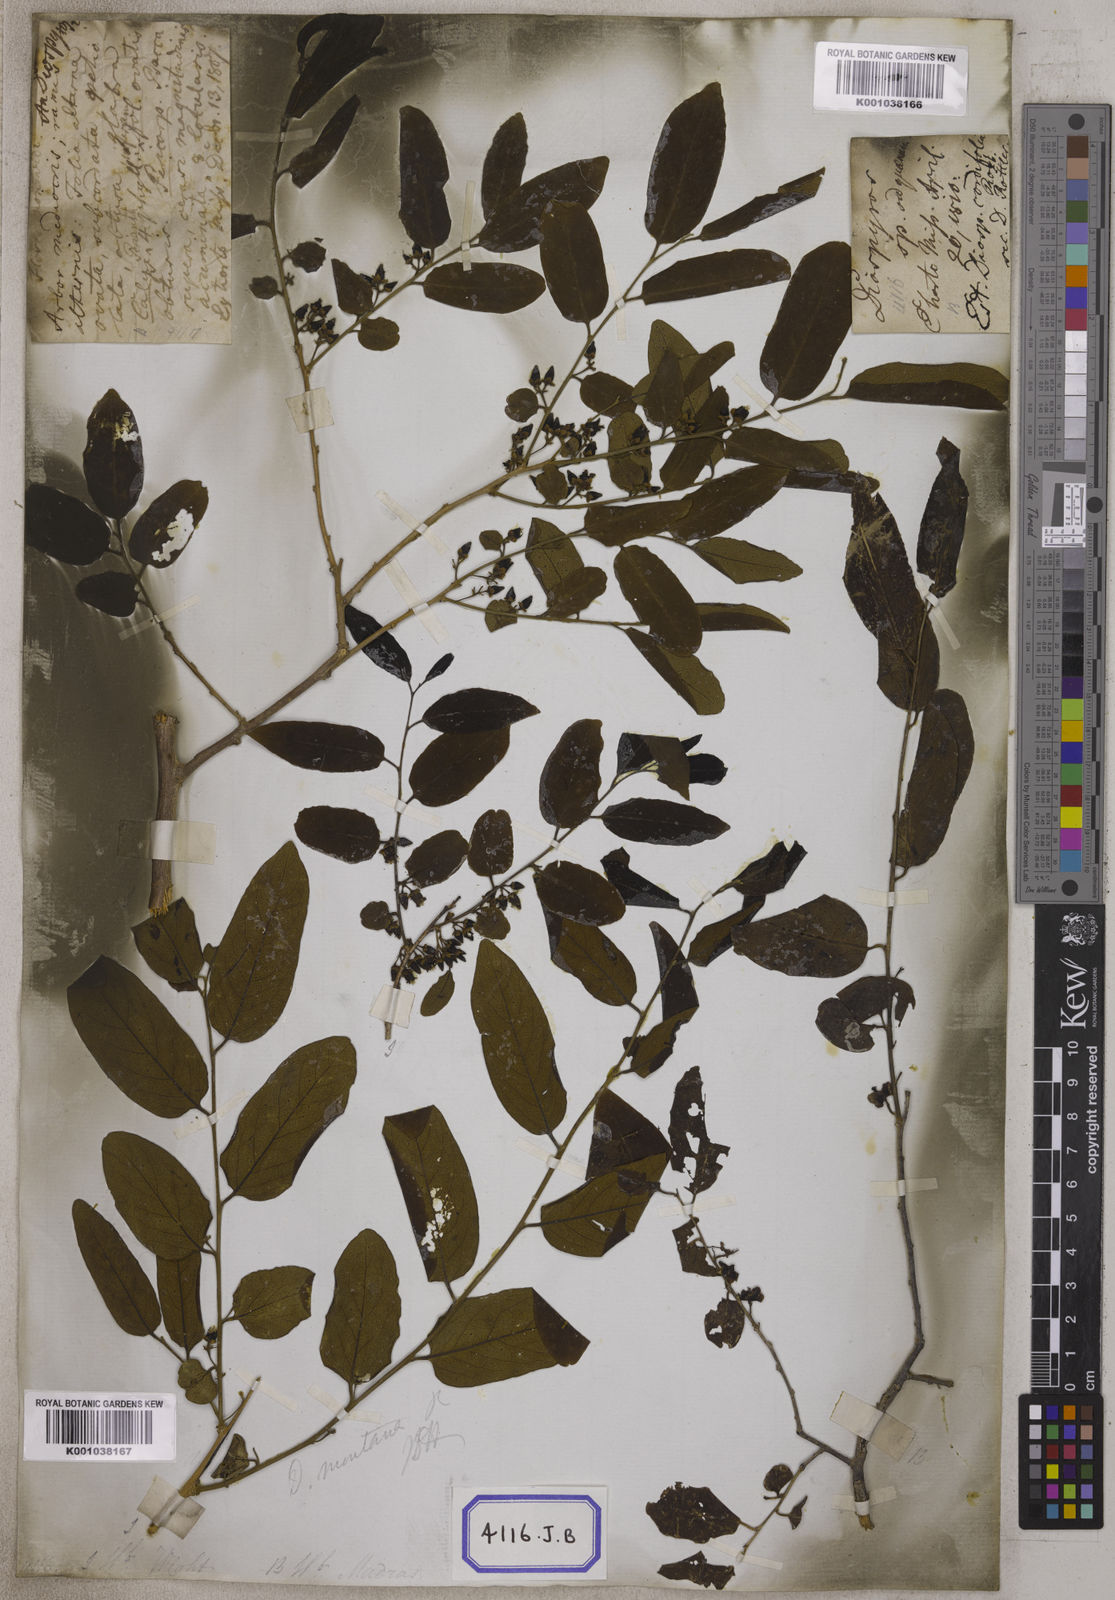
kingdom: Plantae
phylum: Tracheophyta
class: Magnoliopsida
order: Ericales
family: Ebenaceae
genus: Diospyros
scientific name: Diospyros montana
